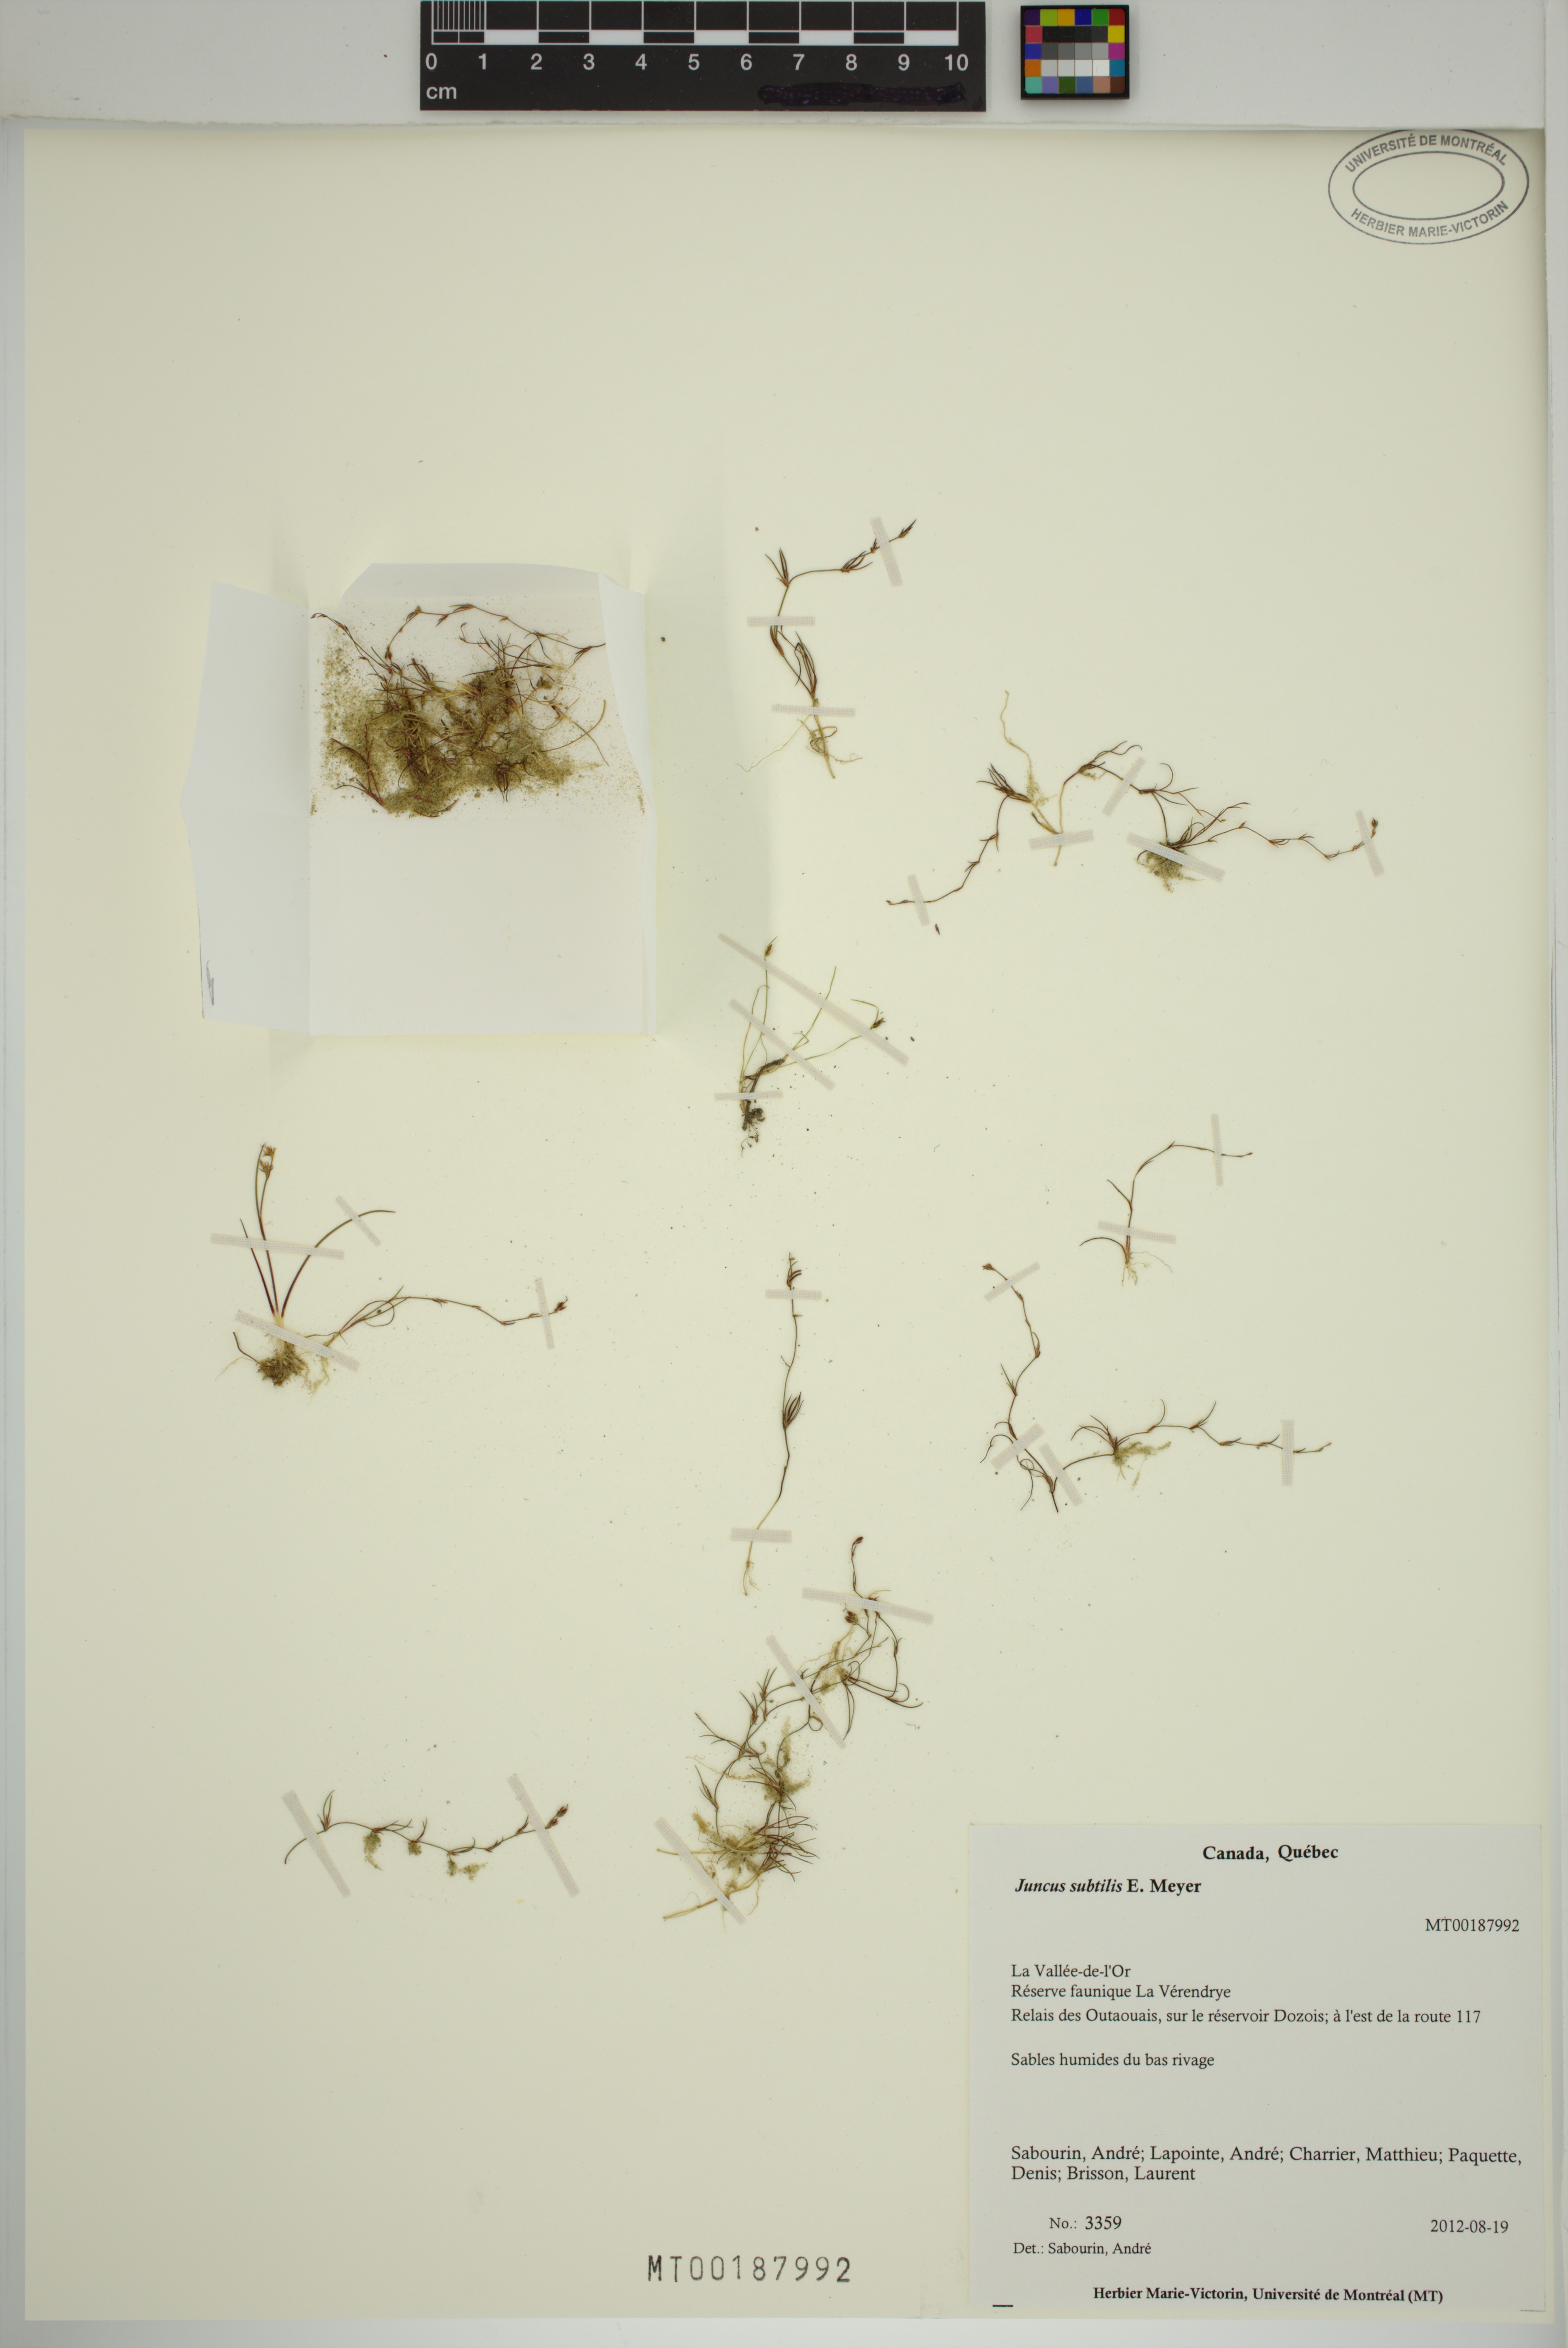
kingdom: Plantae
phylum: Tracheophyta
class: Liliopsida
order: Poales
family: Juncaceae
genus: Juncus
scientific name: Juncus subtilis
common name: Creeping rush
